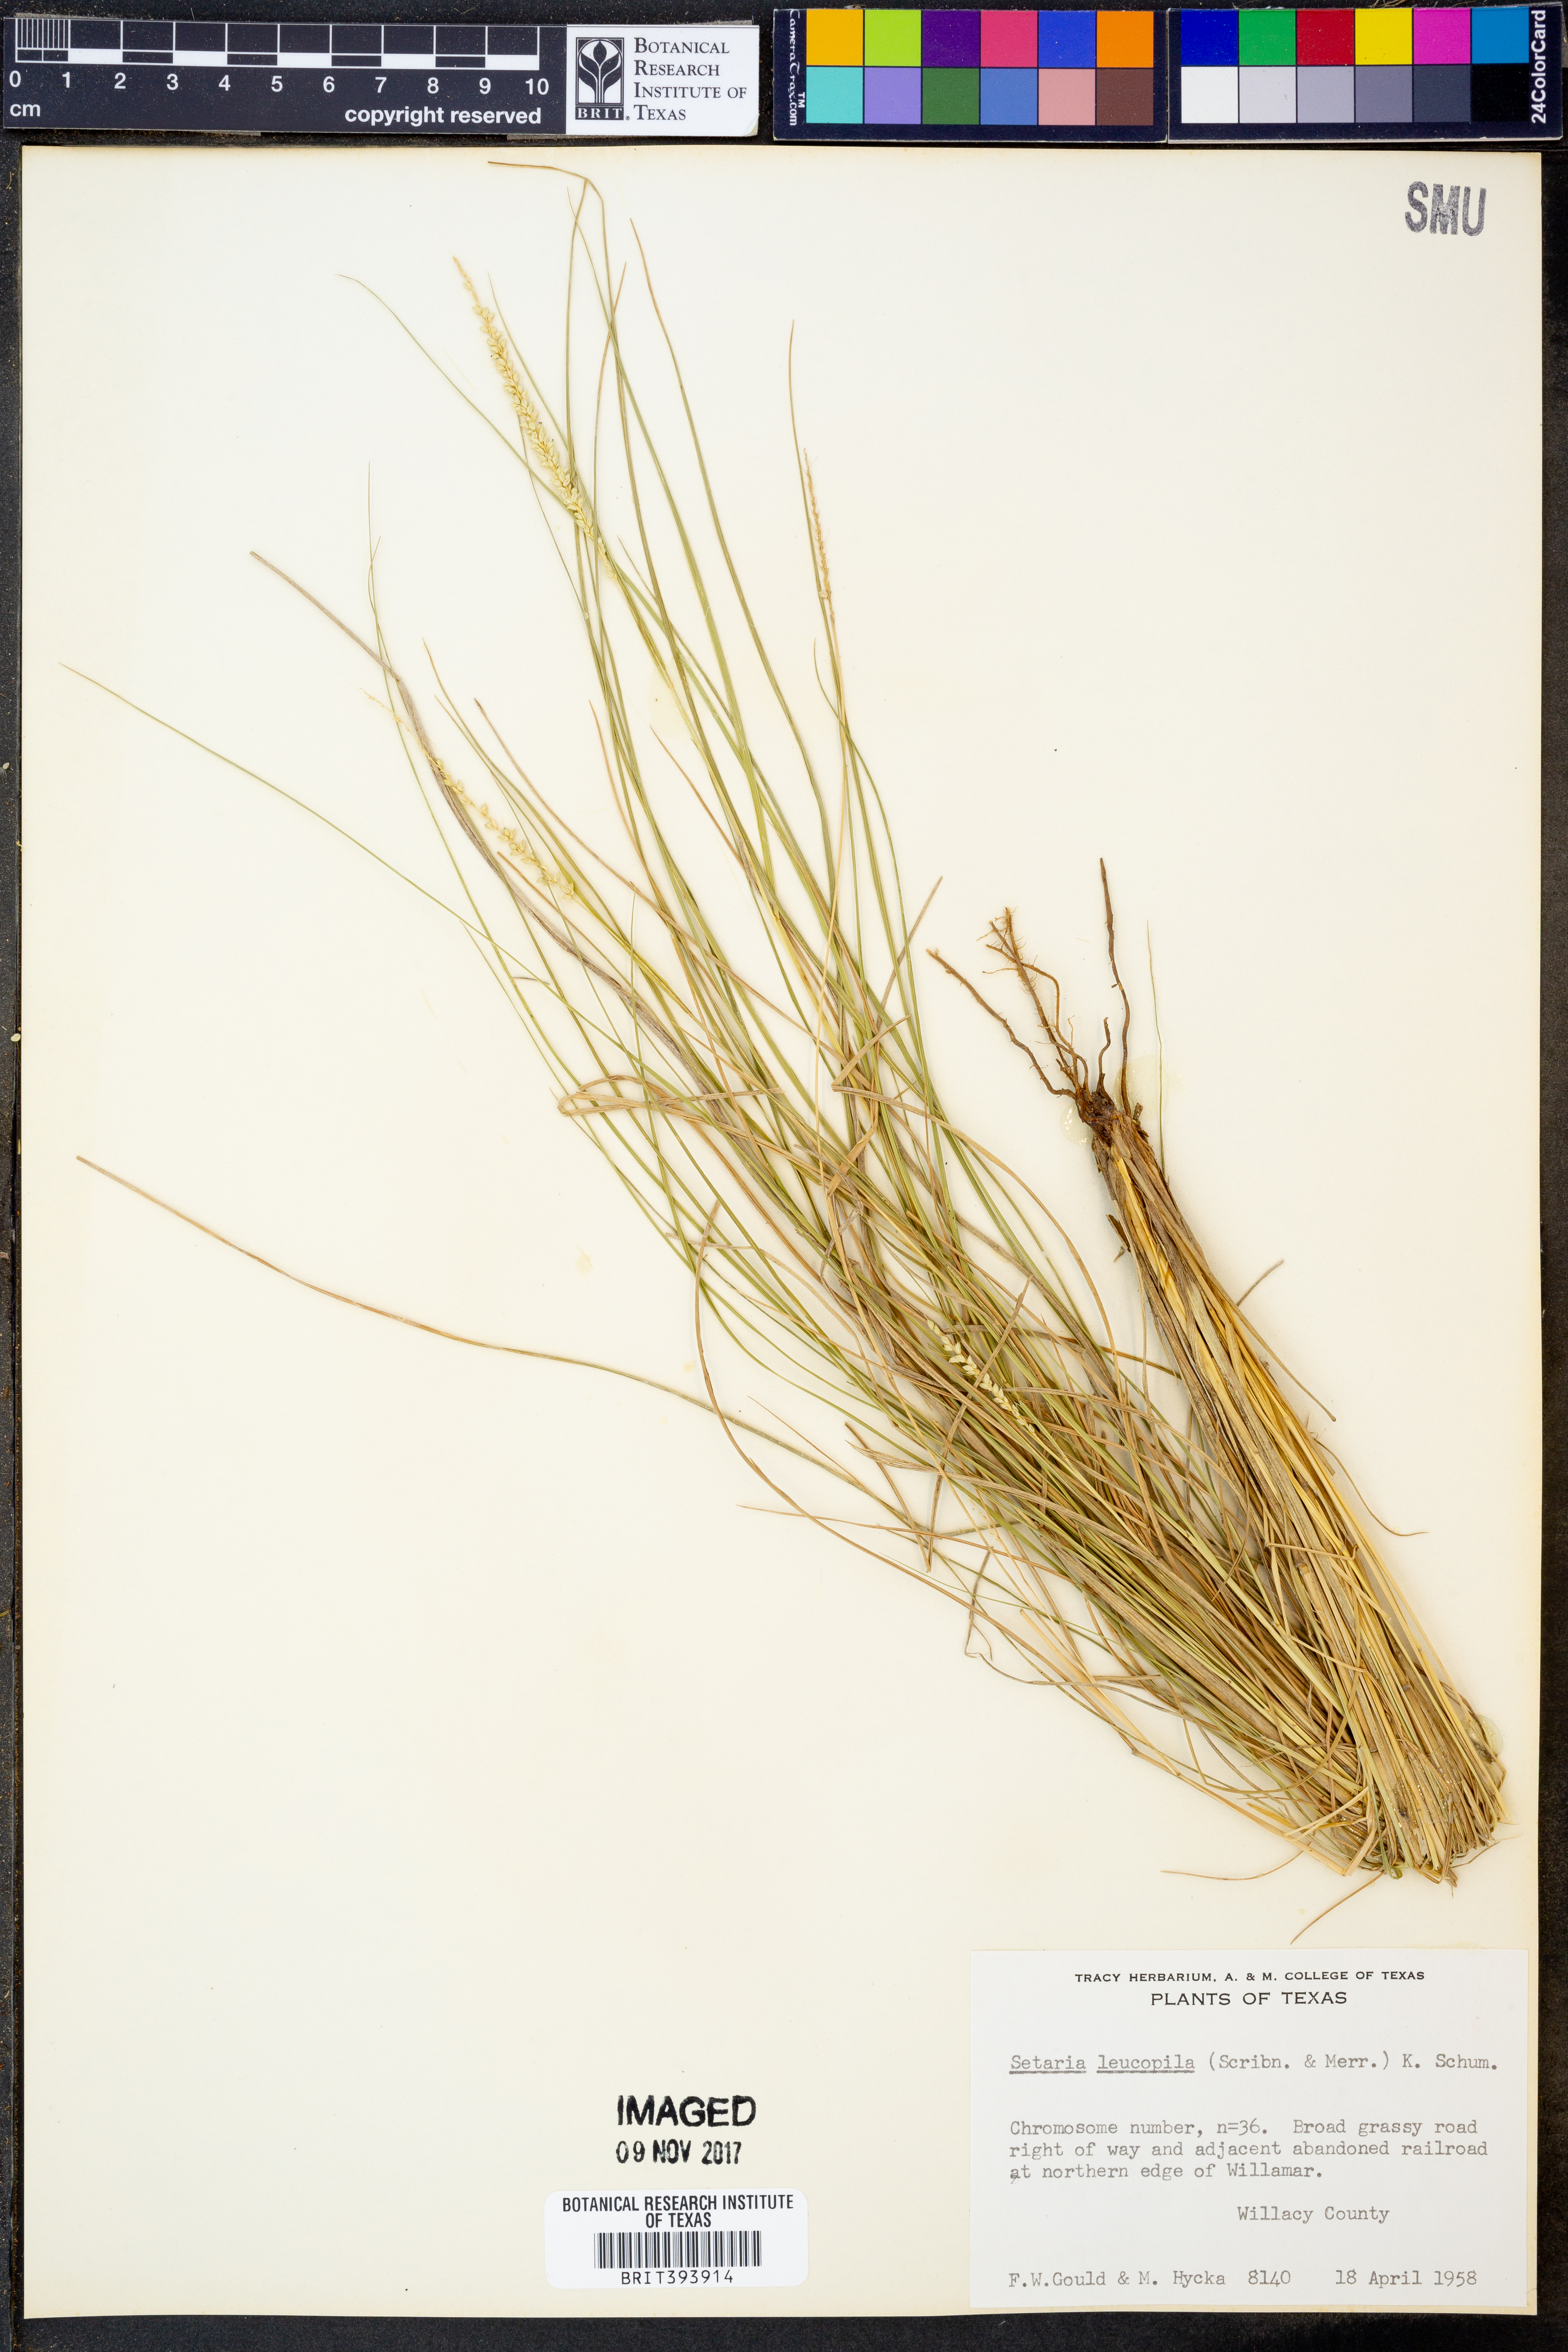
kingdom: Plantae
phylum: Tracheophyta
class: Liliopsida
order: Poales
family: Poaceae
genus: Setaria
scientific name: Setaria leucopila
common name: Plains bristle grass
